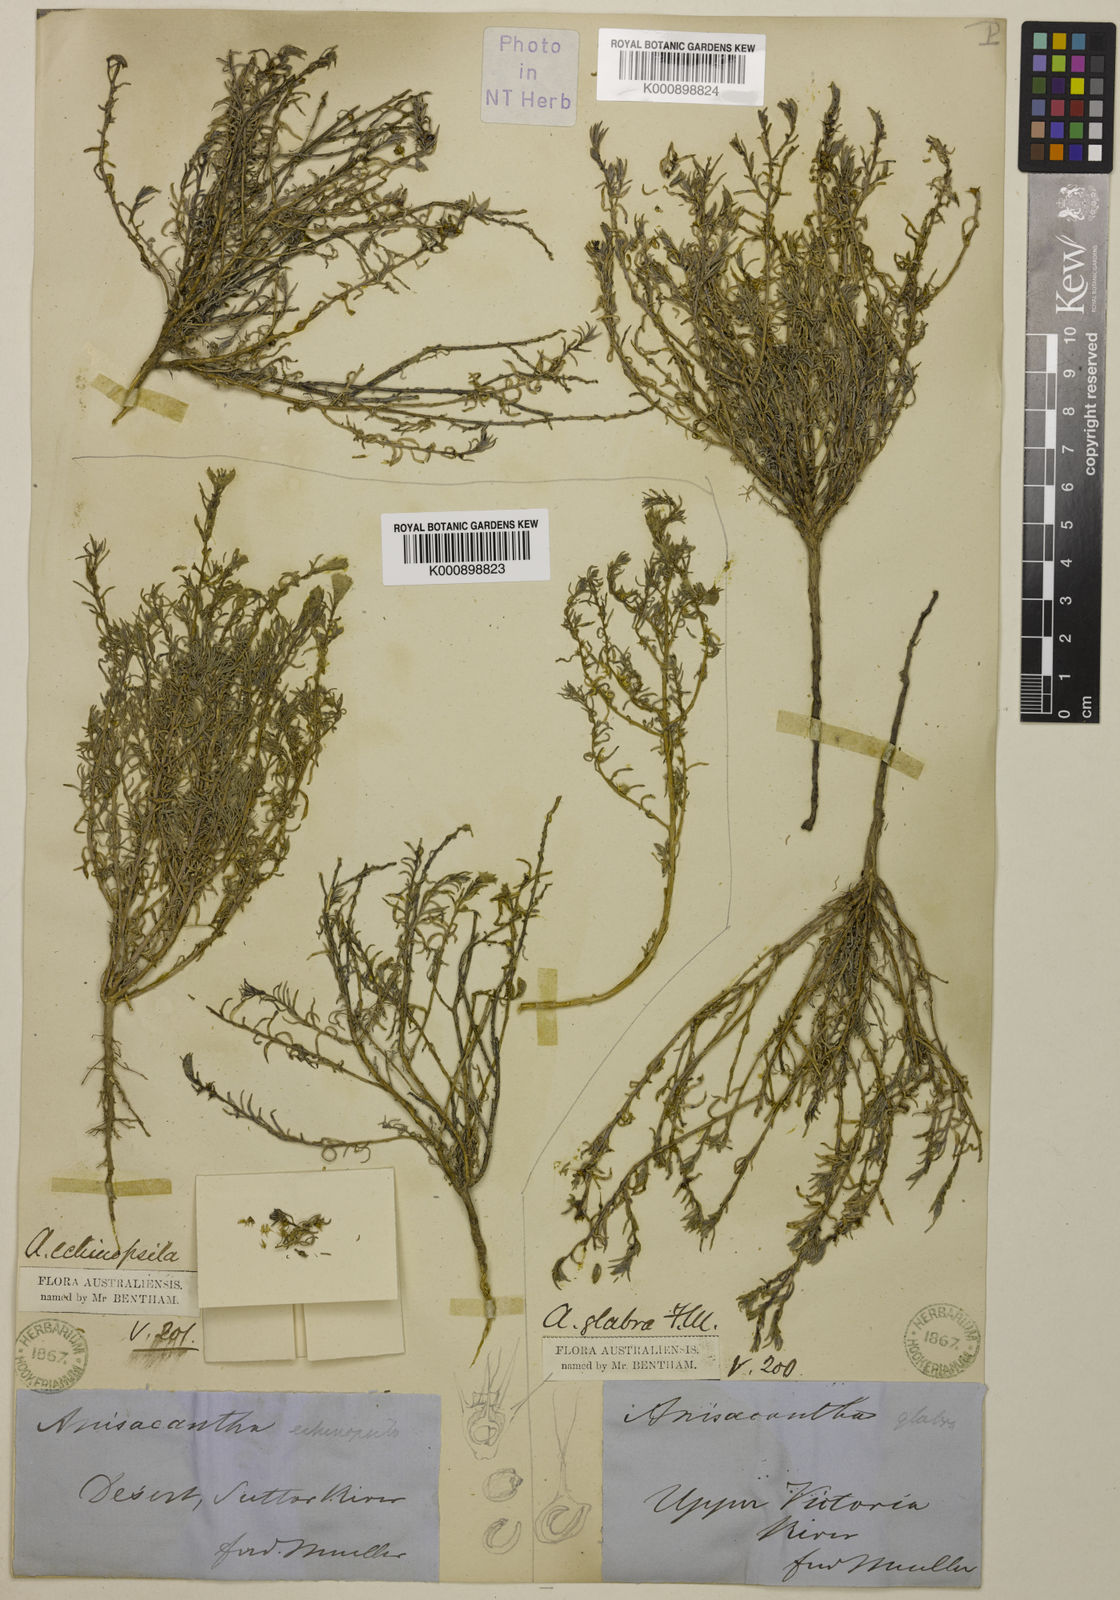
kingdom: Plantae
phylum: Tracheophyta
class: Magnoliopsida
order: Caryophyllales
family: Amaranthaceae
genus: Sclerolaena
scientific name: Sclerolaena anisacanthoides
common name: Yellowbur
